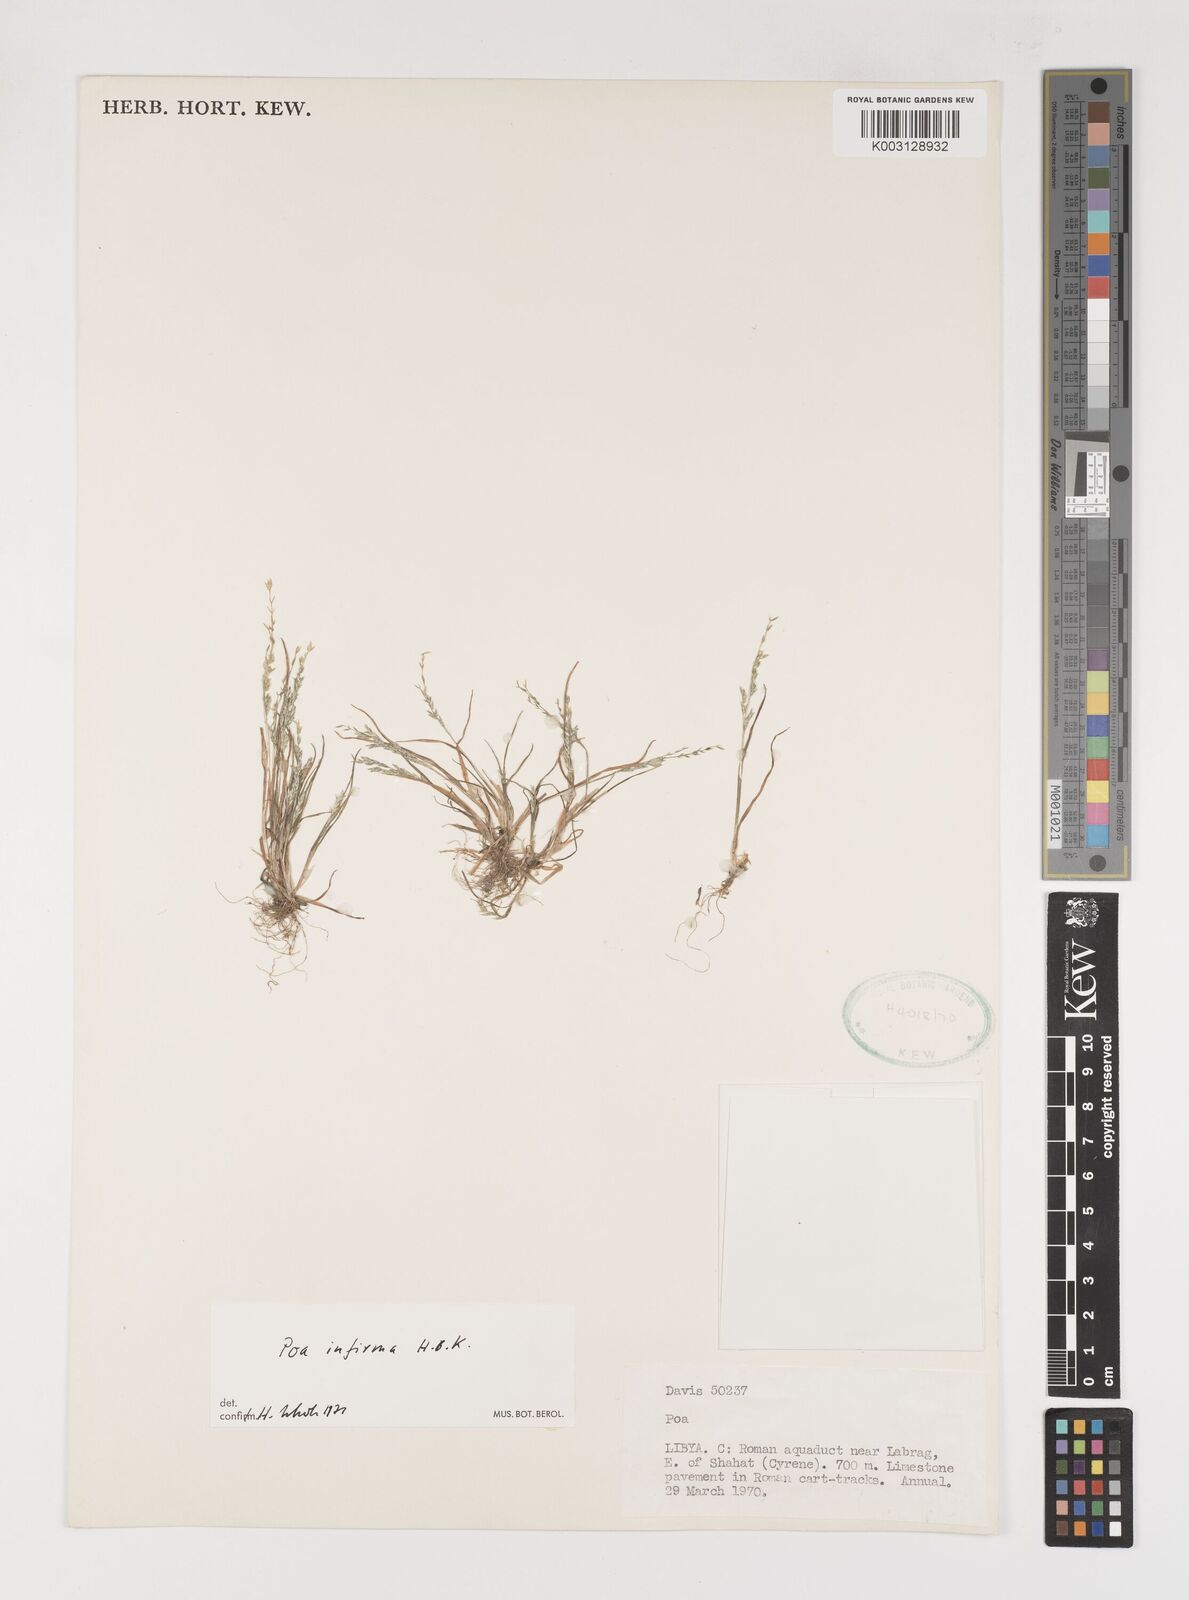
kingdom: Plantae
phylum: Tracheophyta
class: Liliopsida
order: Poales
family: Poaceae
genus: Poa
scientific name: Poa infirma
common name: Weak bluegrass
